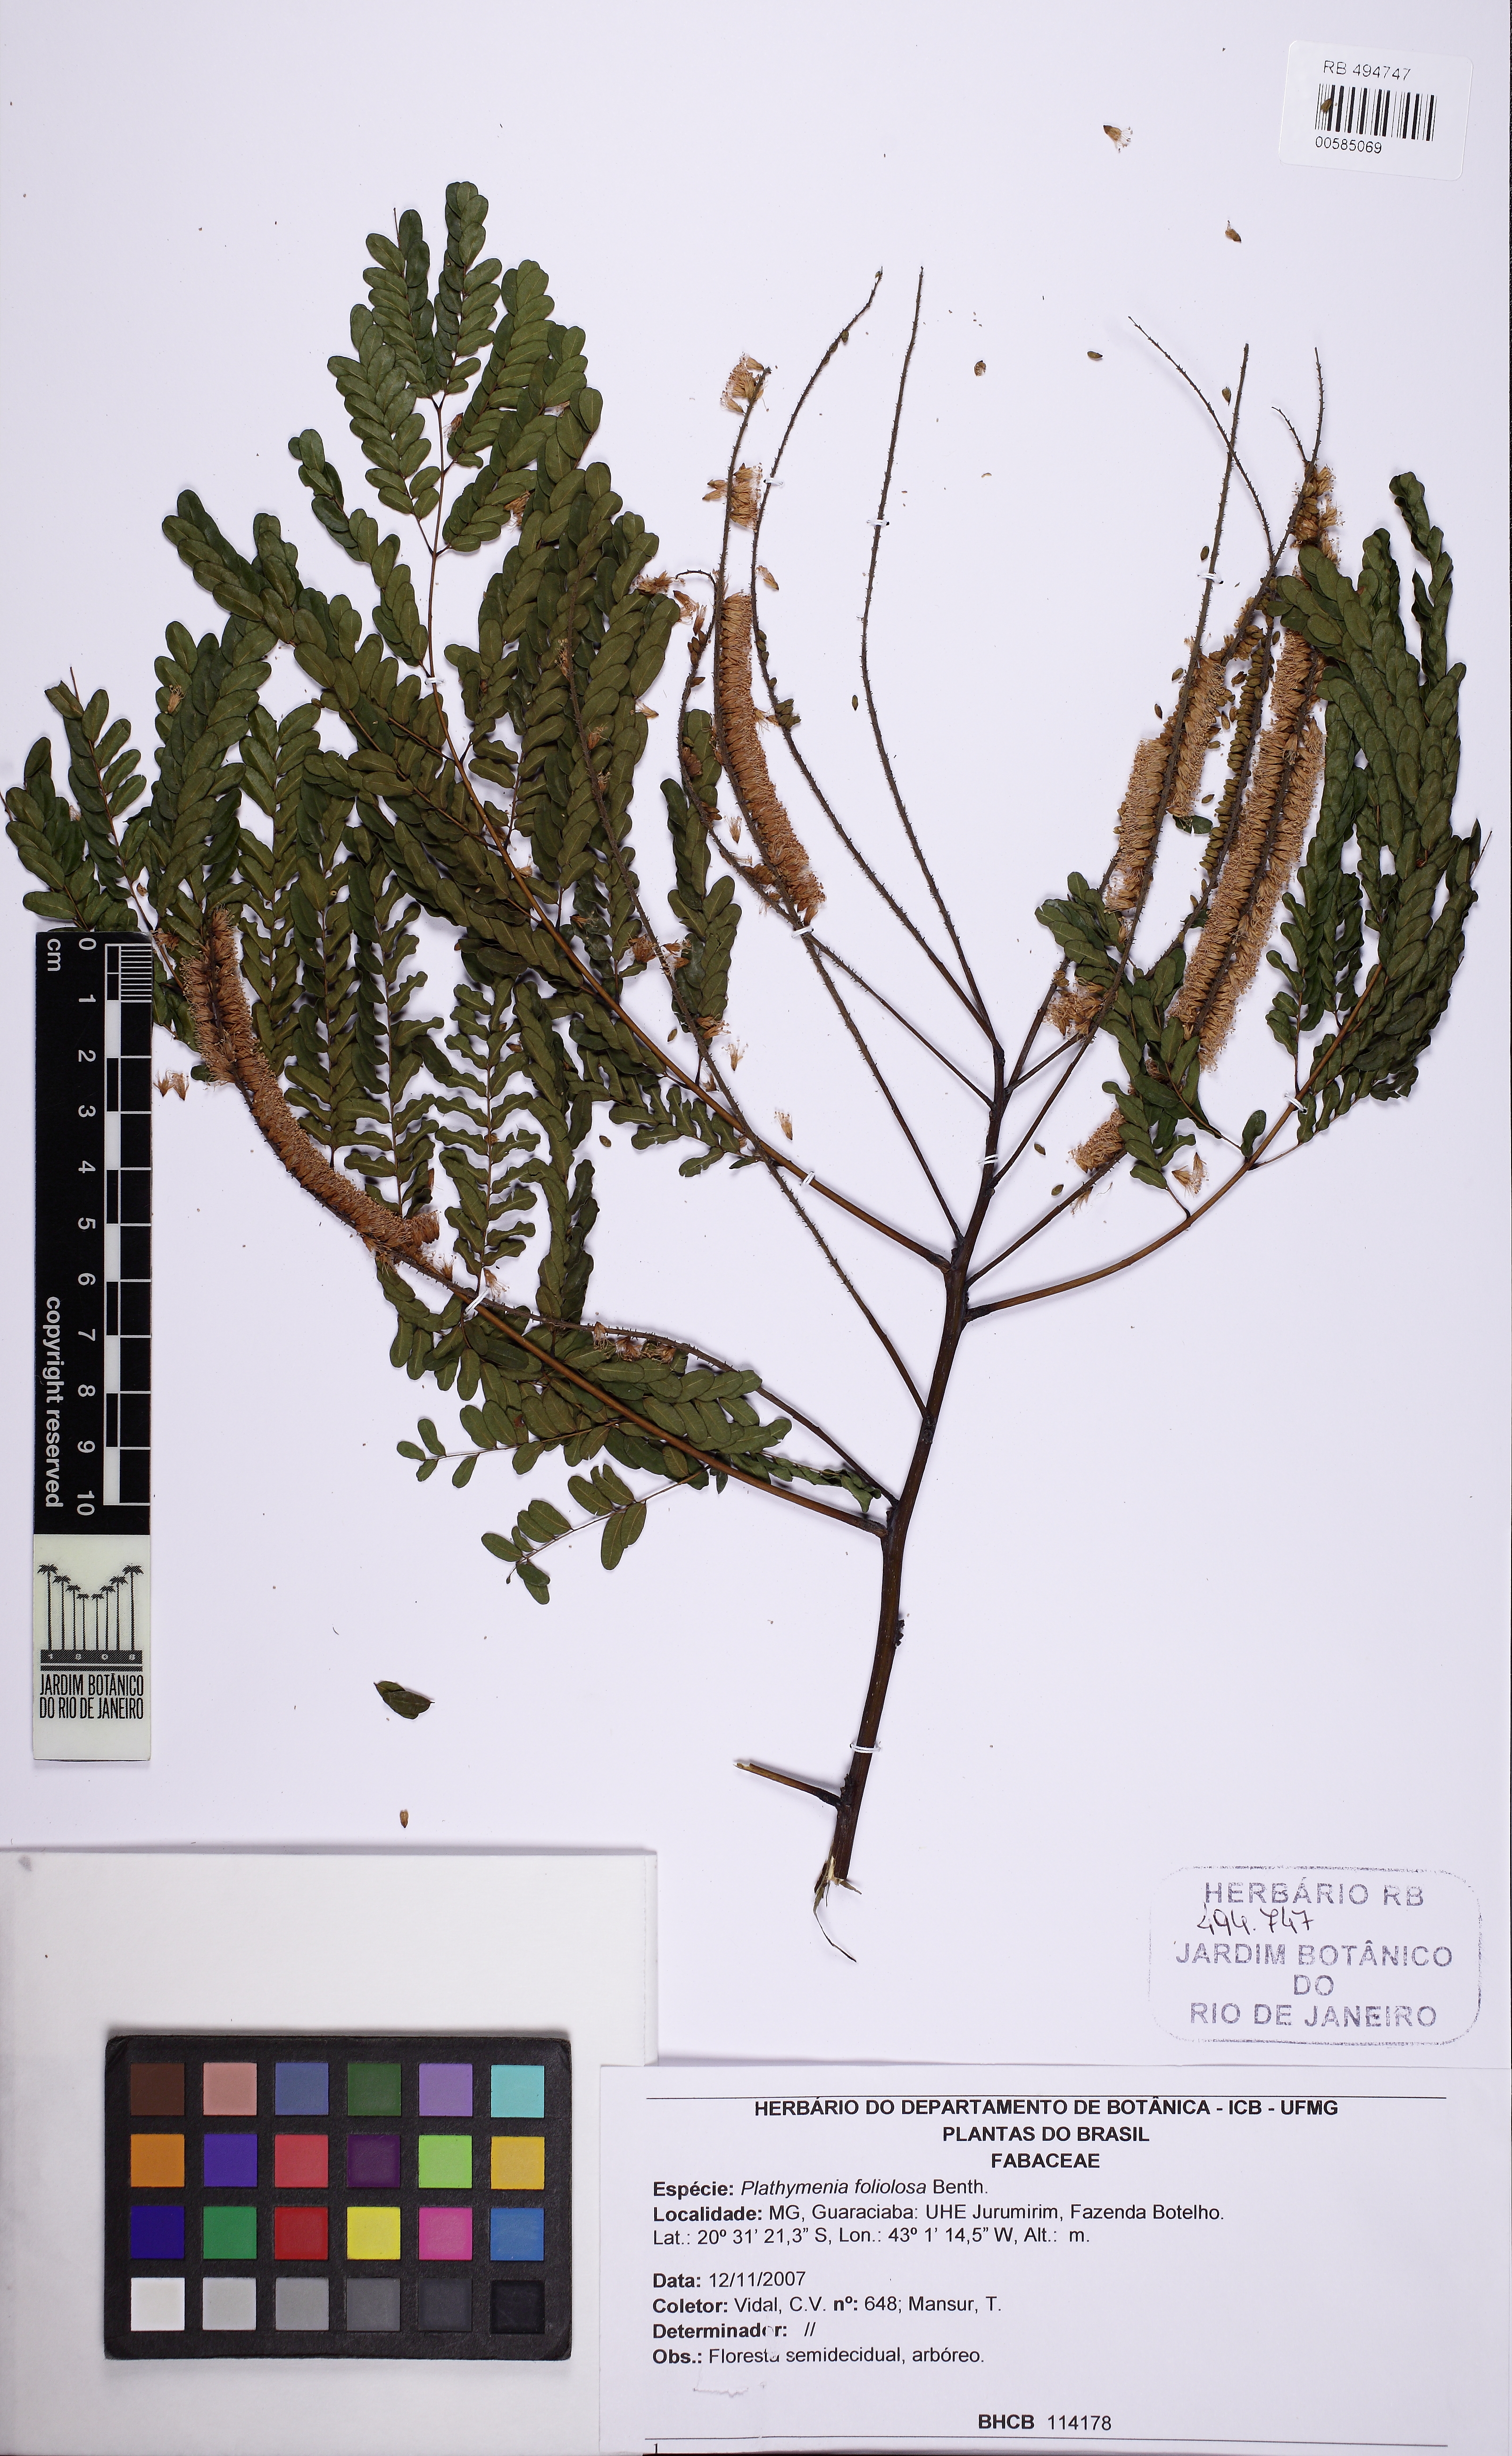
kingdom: Plantae
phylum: Tracheophyta
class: Magnoliopsida
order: Fabales
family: Fabaceae
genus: Plathymenia
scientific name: Plathymenia reticulata
